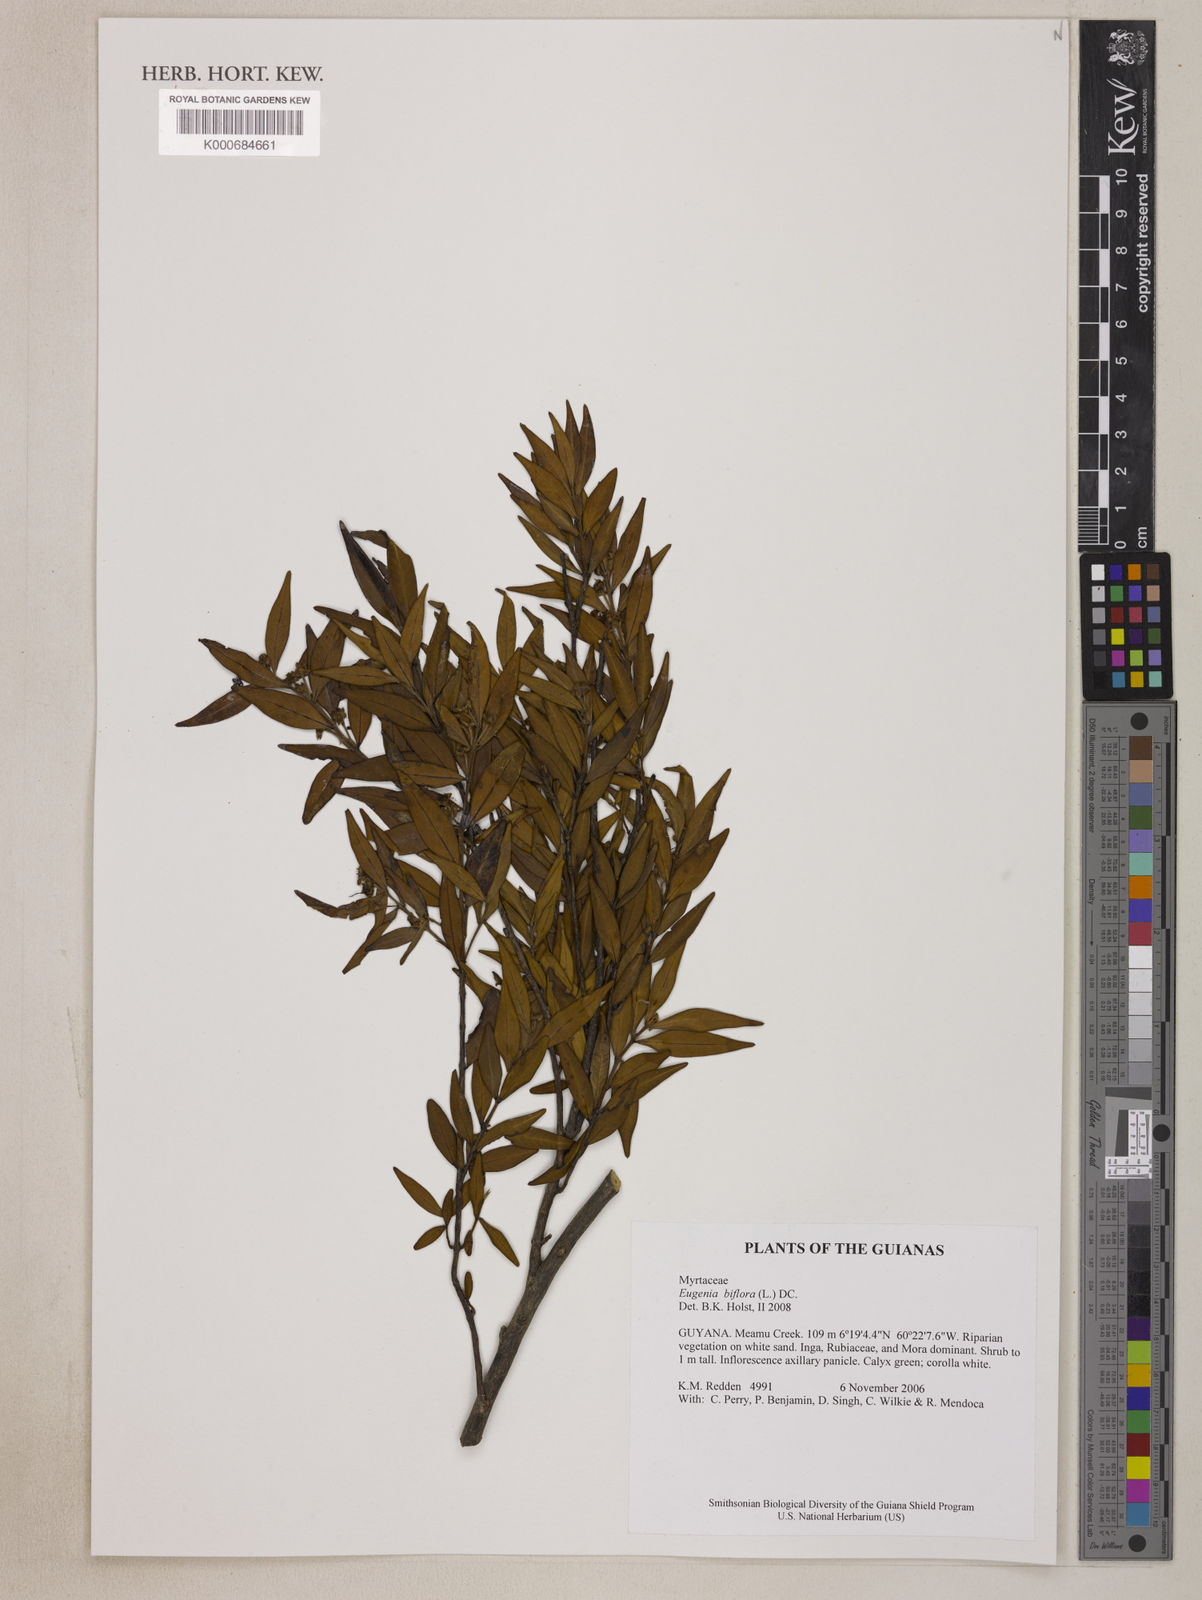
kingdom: Plantae
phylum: Tracheophyta
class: Magnoliopsida
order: Myrtales
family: Myrtaceae
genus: Eugenia
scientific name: Eugenia biflora
